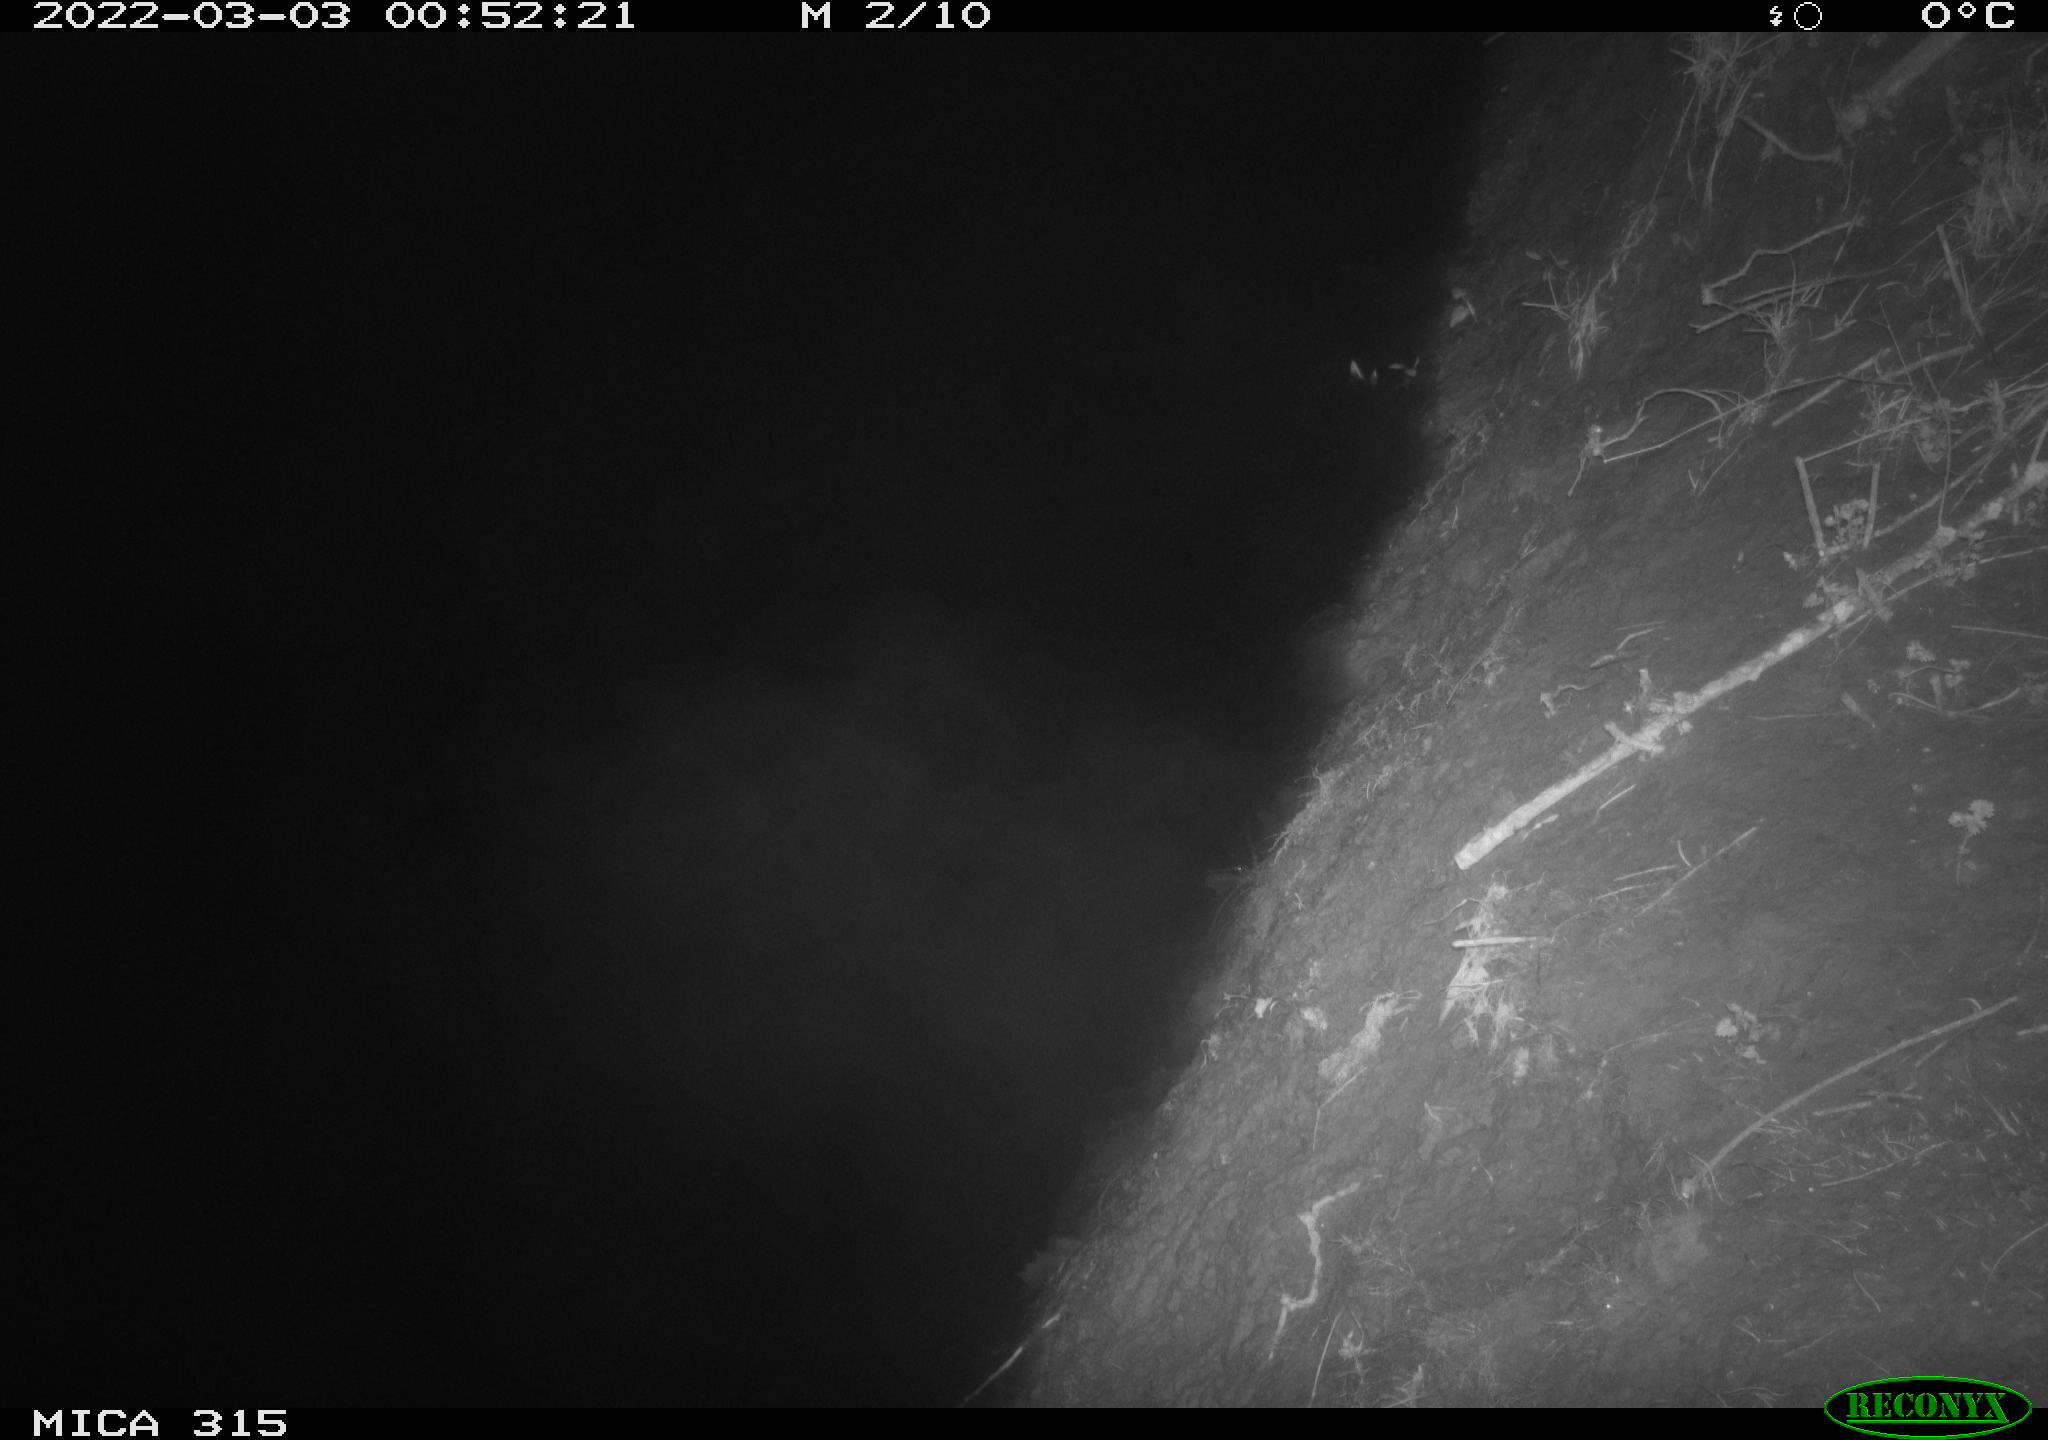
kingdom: Animalia
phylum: Chordata
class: Mammalia
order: Rodentia
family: Muridae
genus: Rattus
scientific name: Rattus norvegicus
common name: Brown rat
